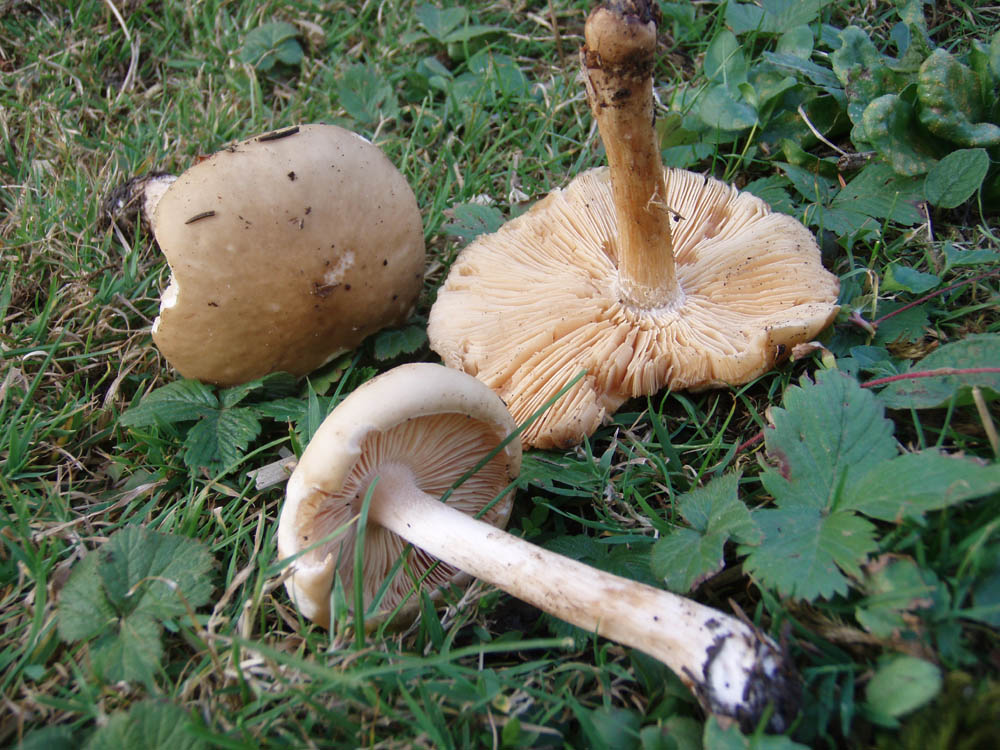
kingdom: Fungi
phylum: Basidiomycota
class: Agaricomycetes
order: Agaricales
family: Tricholomataceae
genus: Melanoleuca
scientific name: Melanoleuca cognata
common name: gyldengrå munkehat
